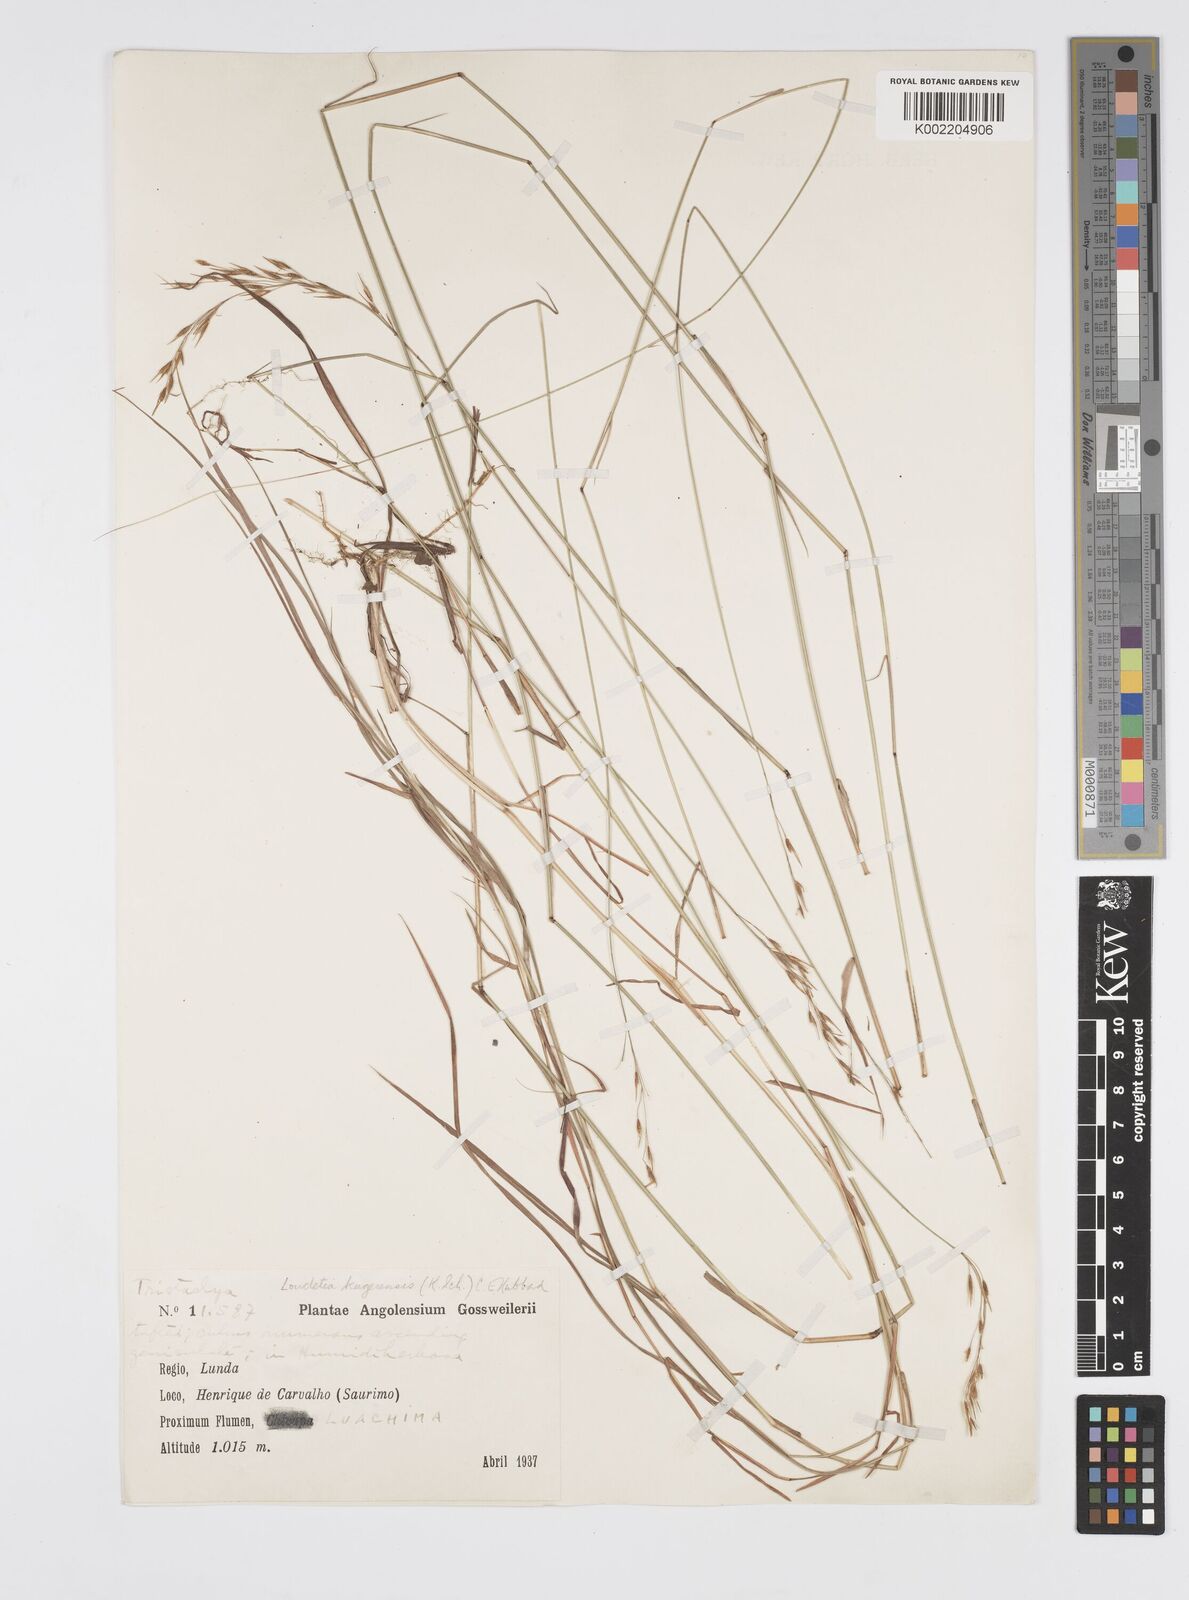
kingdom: Plantae
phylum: Tracheophyta
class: Liliopsida
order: Poales
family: Poaceae
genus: Loudetia
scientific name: Loudetia kagerensis
